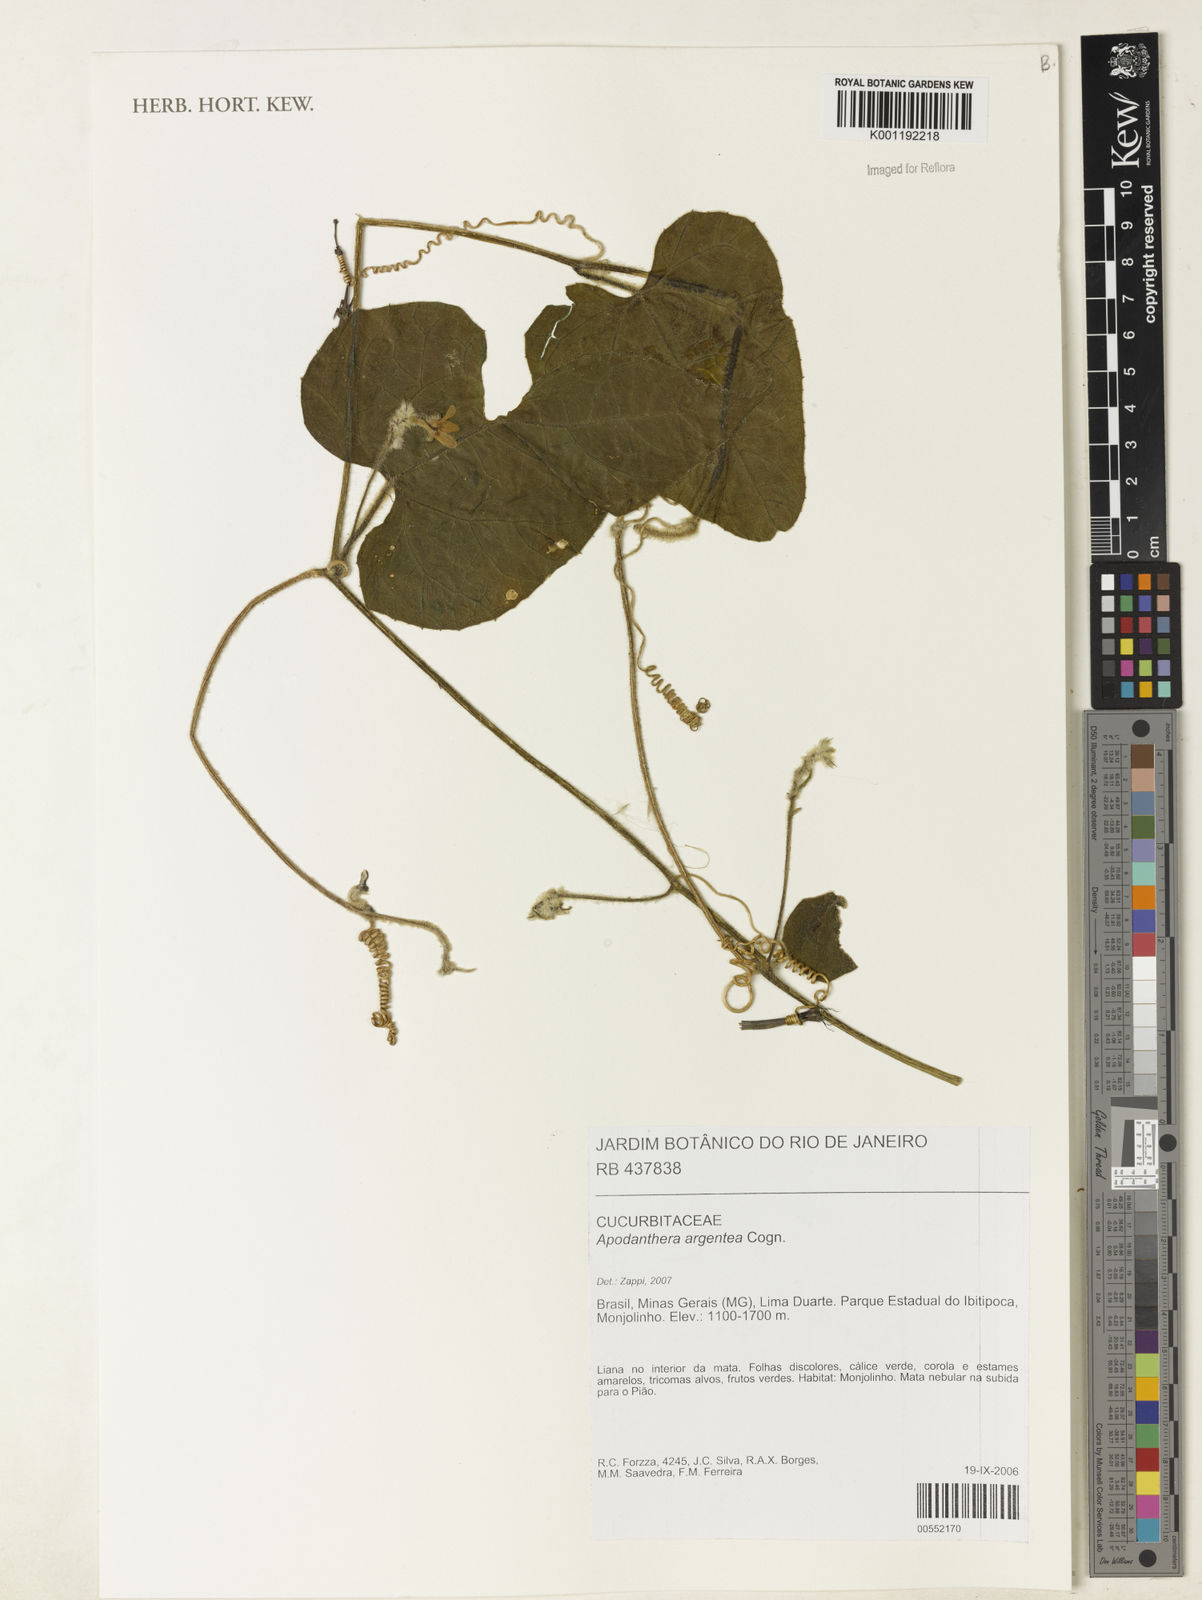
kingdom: Plantae
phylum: Tracheophyta
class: Magnoliopsida
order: Cucurbitales
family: Cucurbitaceae
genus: Apodanthera
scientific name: Apodanthera argentea
